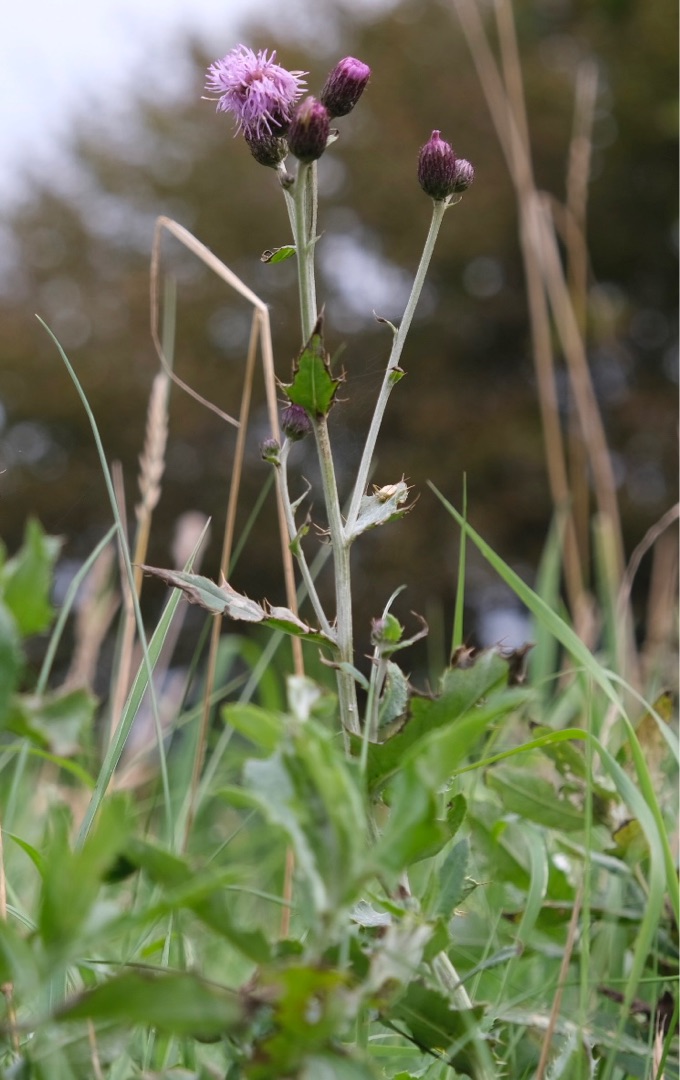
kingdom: Plantae
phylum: Tracheophyta
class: Magnoliopsida
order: Asterales
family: Asteraceae
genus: Cirsium
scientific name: Cirsium arvense
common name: Ager-tidsel
